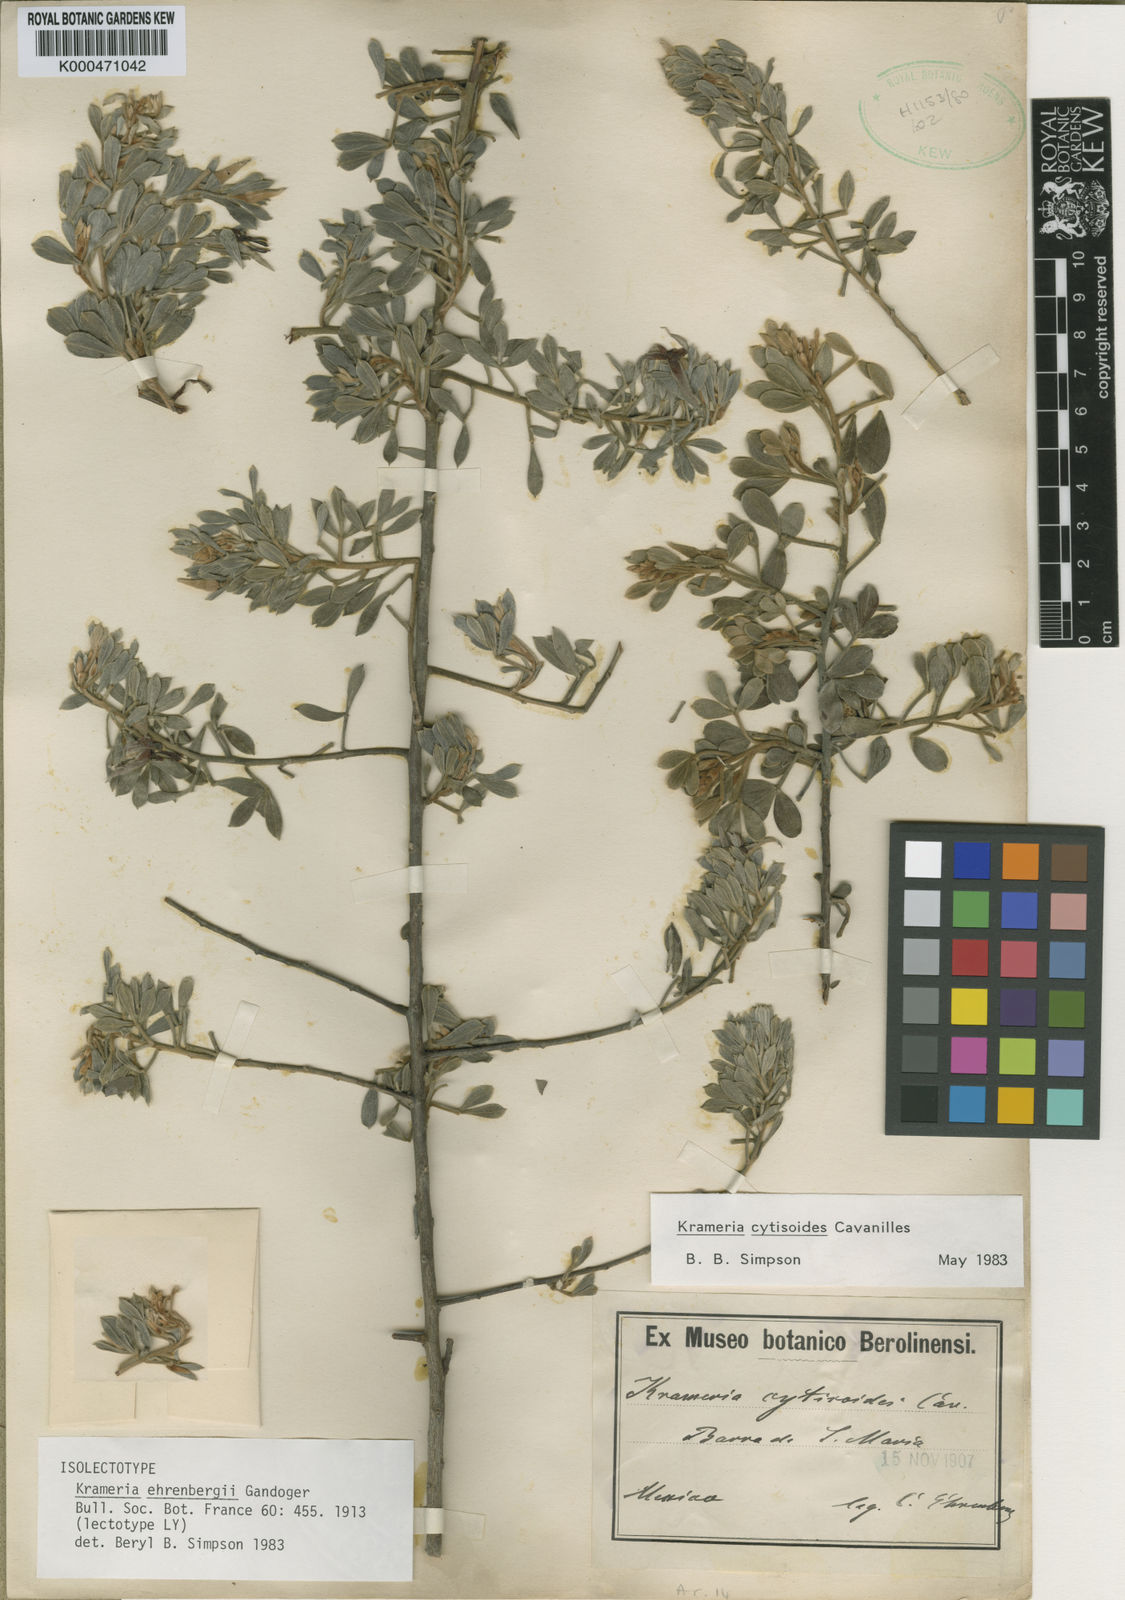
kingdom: Plantae
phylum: Tracheophyta
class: Magnoliopsida
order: Zygophyllales
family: Krameriaceae
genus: Krameria
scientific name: Krameria cytisoides
